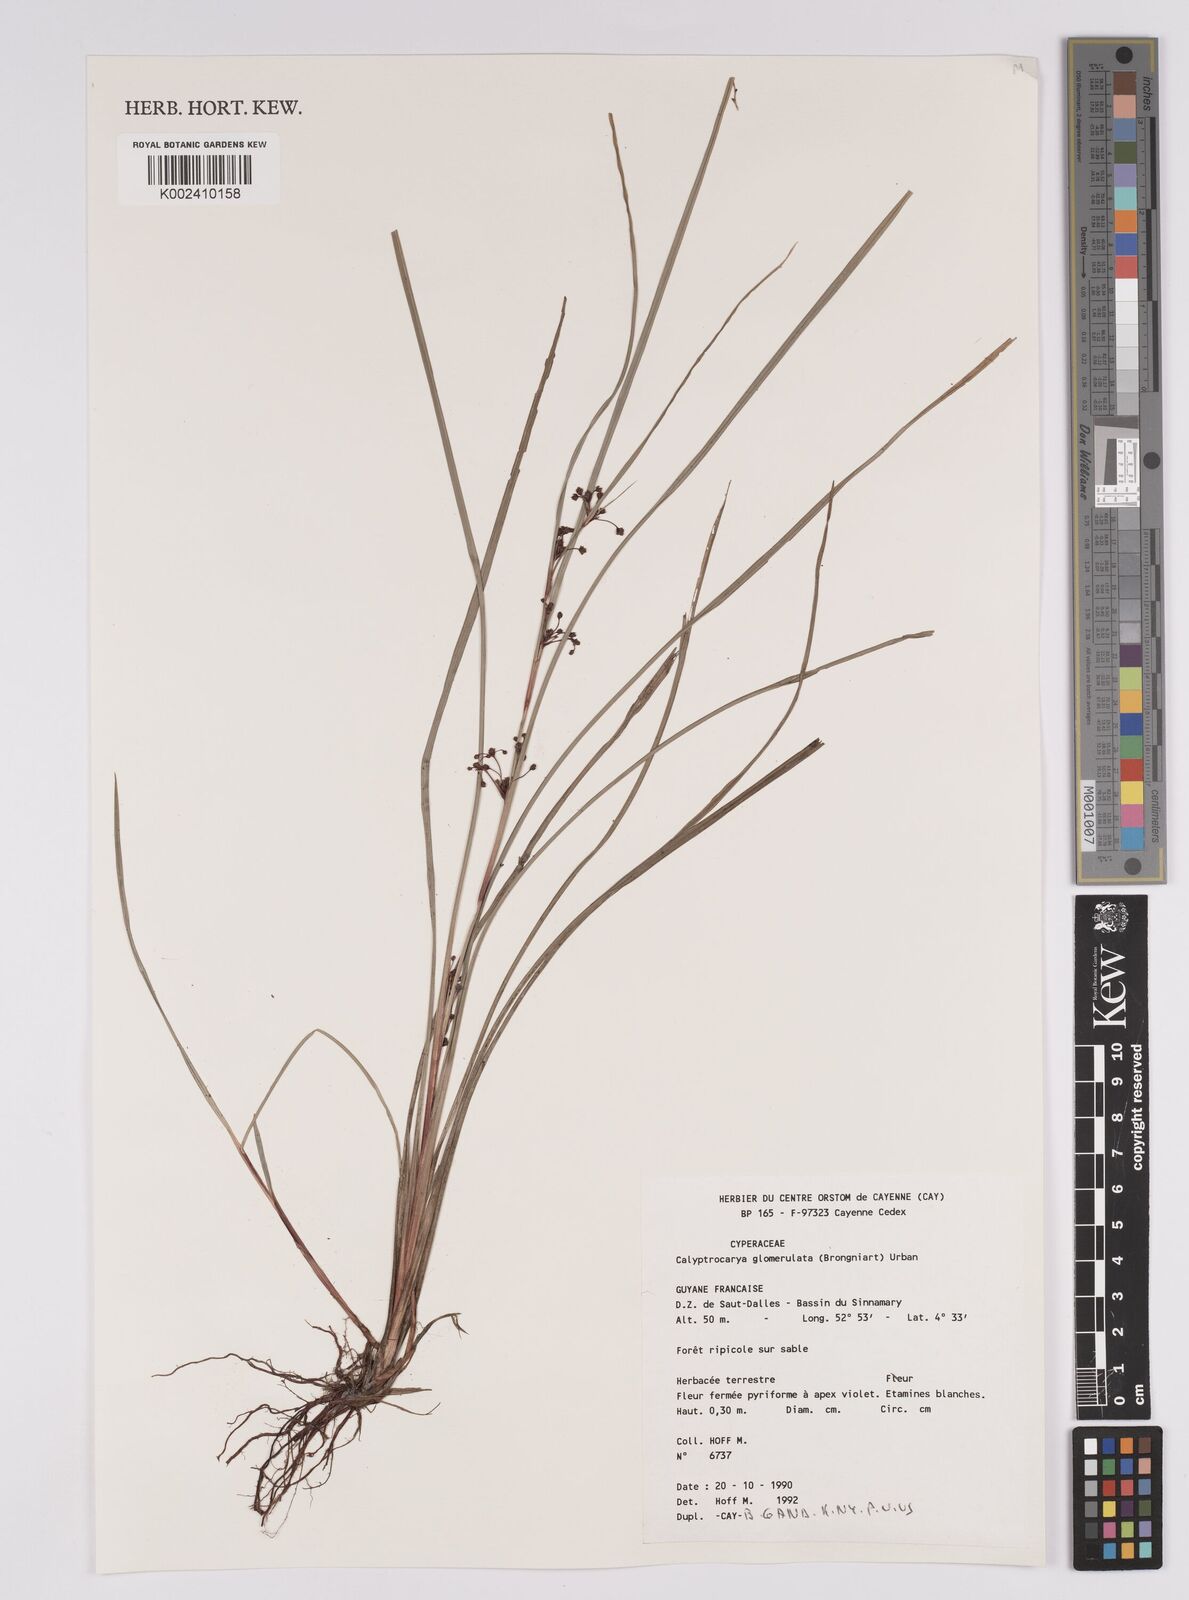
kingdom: Plantae
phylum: Tracheophyta
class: Liliopsida
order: Poales
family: Cyperaceae
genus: Calyptrocarya
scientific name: Calyptrocarya glomerulata
